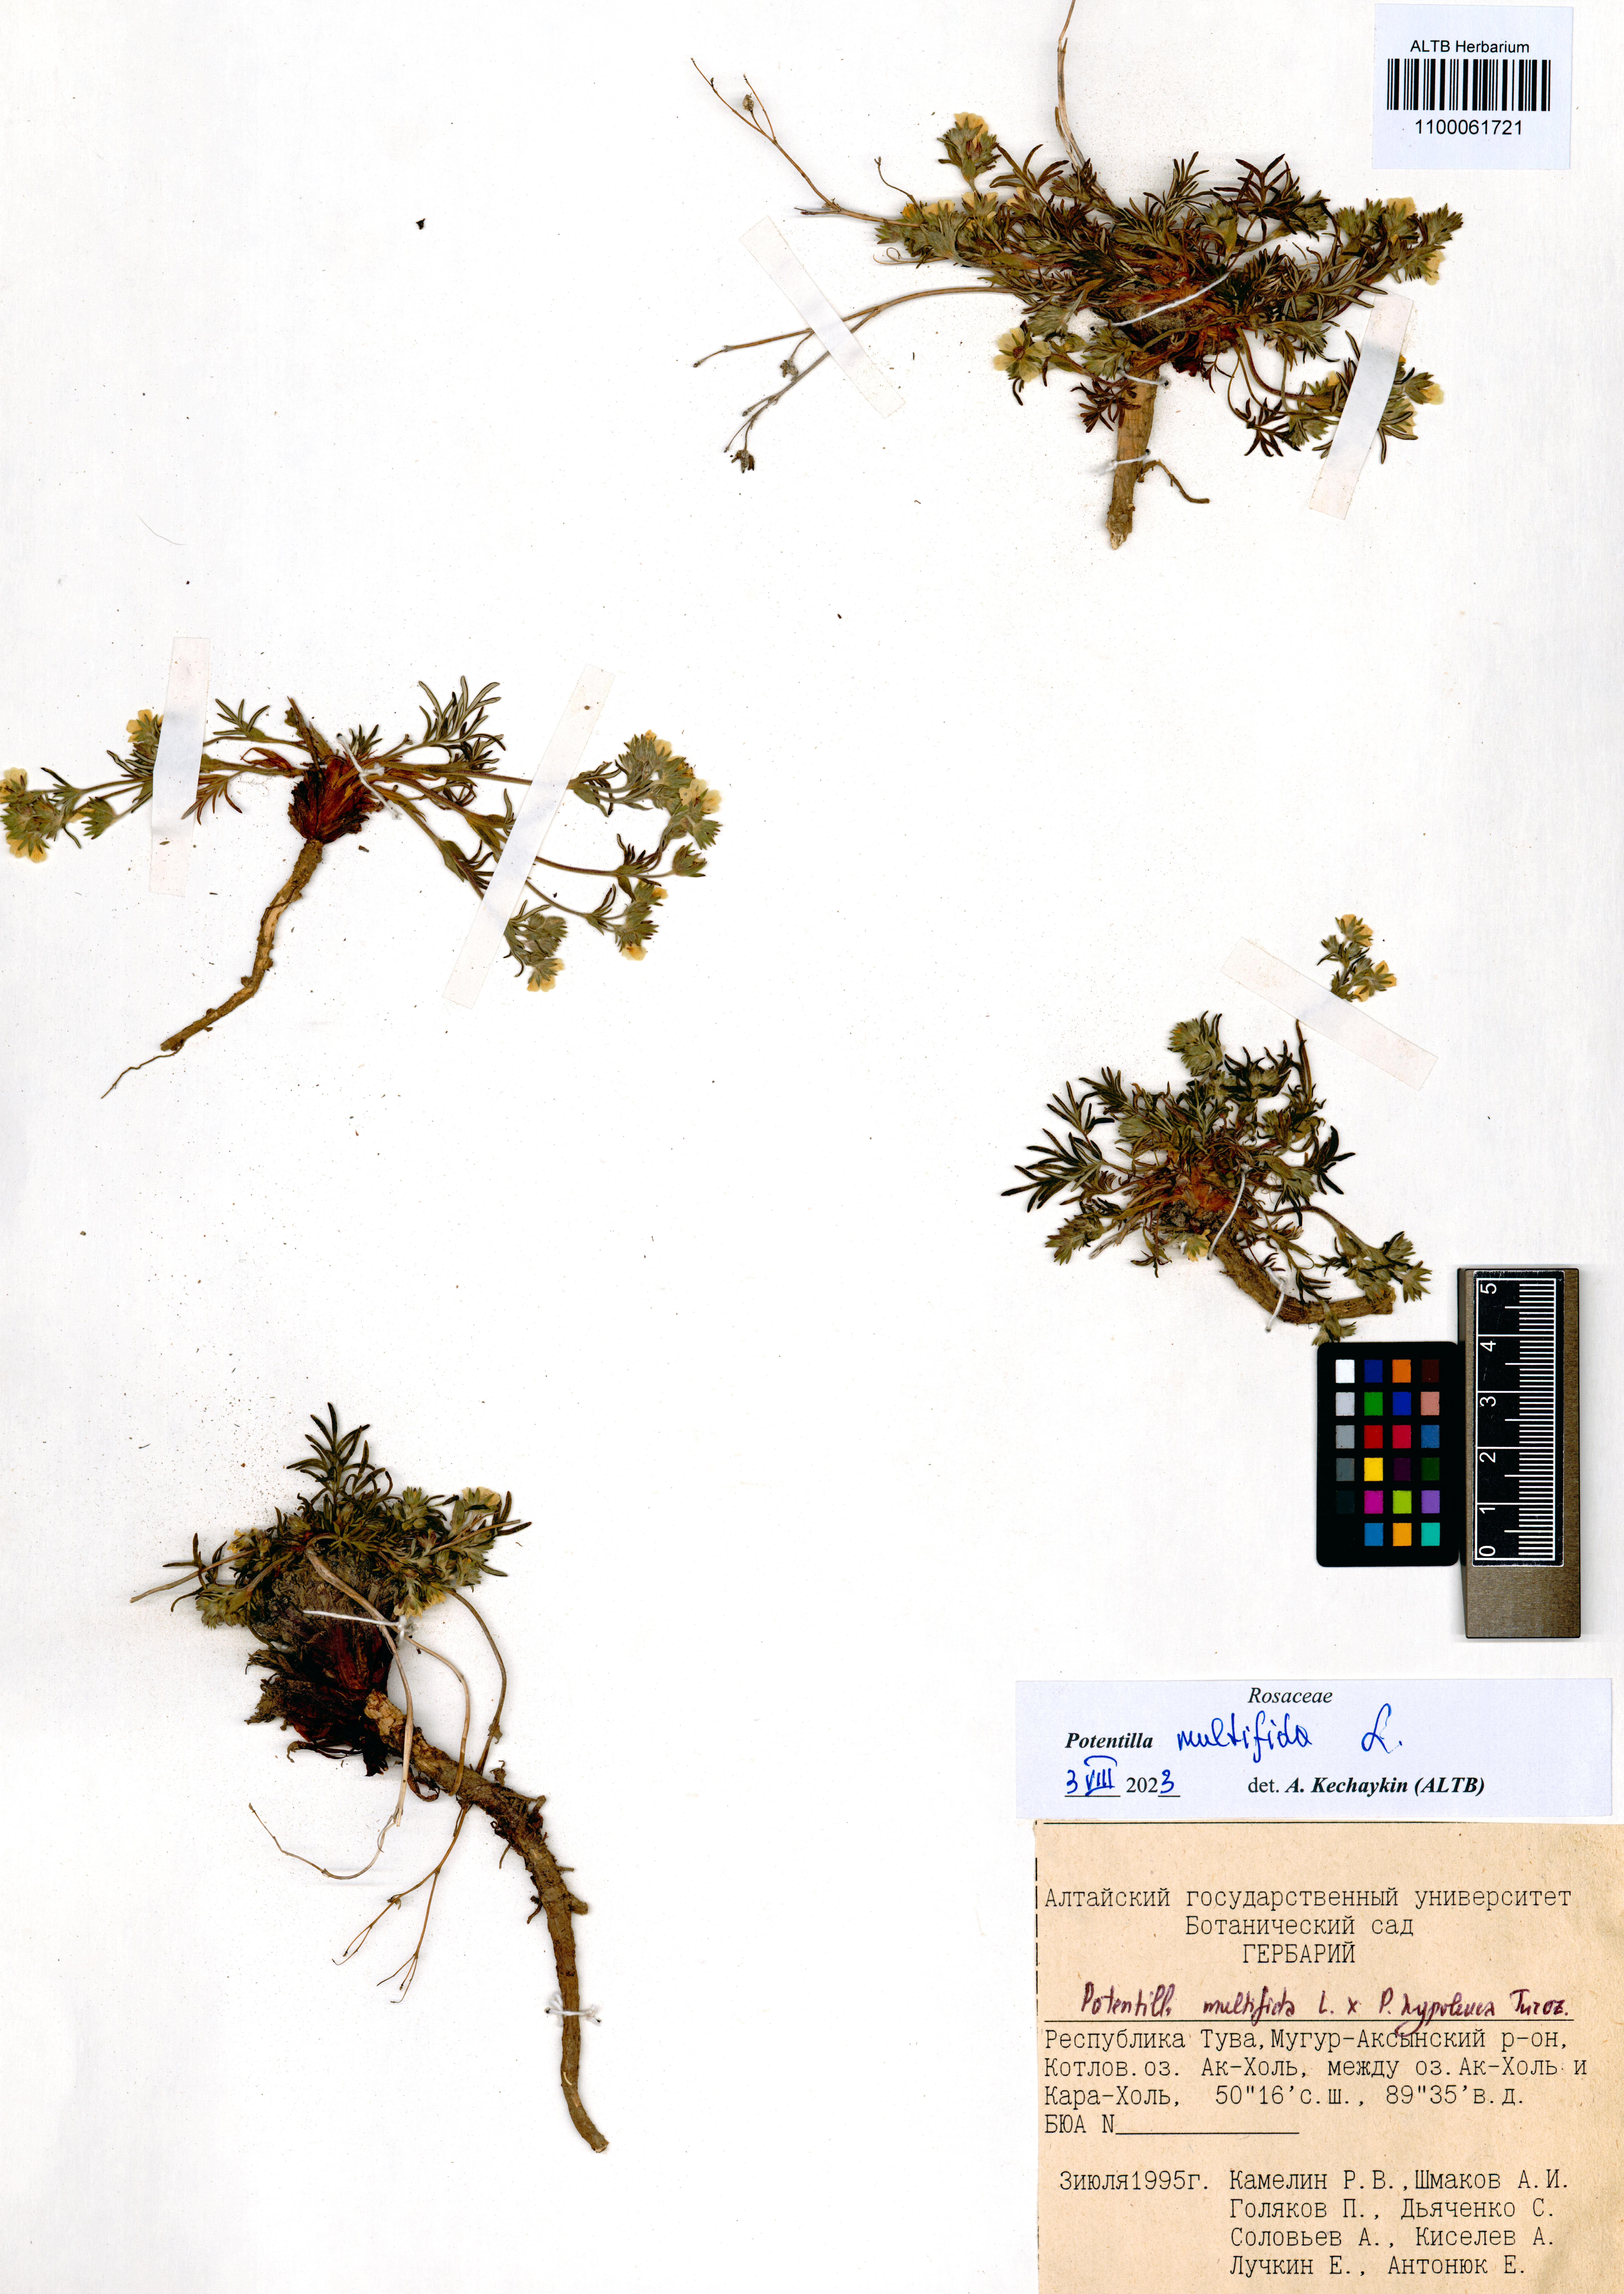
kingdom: Plantae
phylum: Tracheophyta
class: Magnoliopsida
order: Rosales
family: Rosaceae
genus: Potentilla
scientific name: Potentilla multifida
